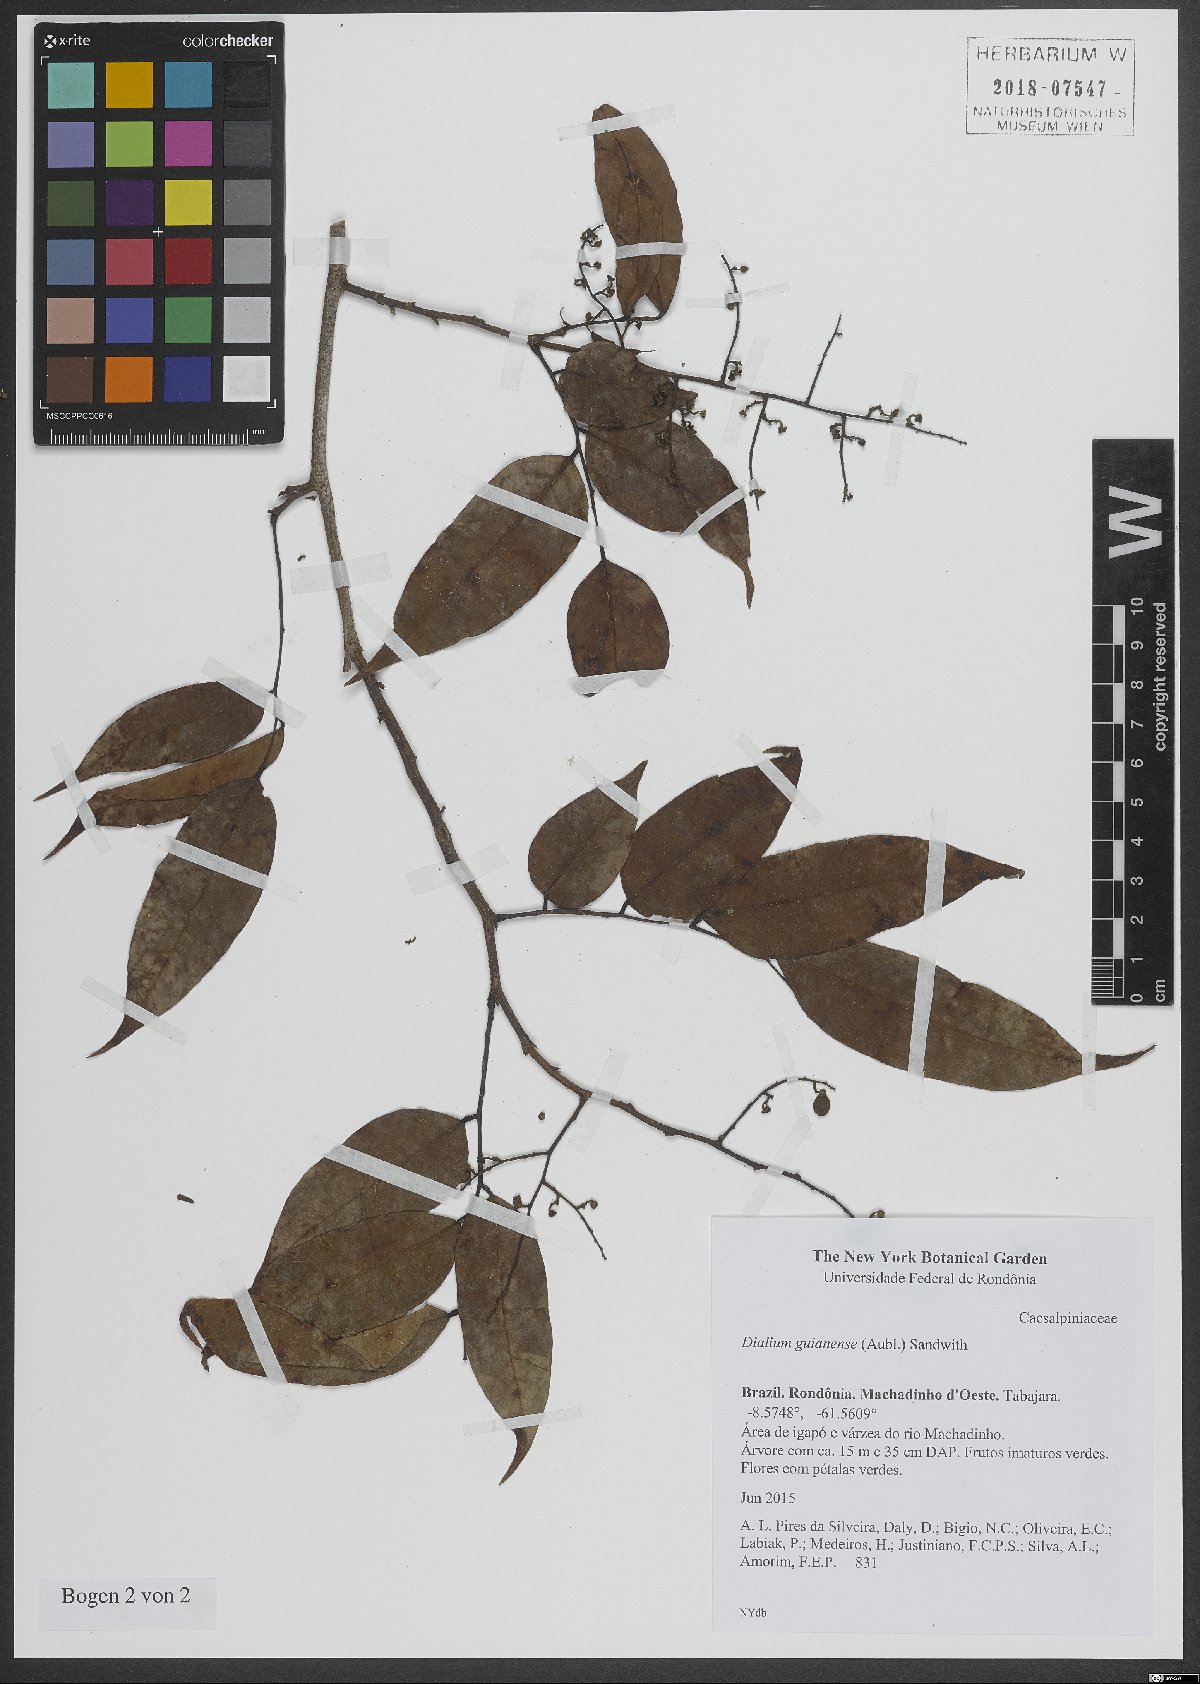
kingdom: Plantae
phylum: Tracheophyta
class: Magnoliopsida
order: Fabales
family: Fabaceae
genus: Dialium
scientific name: Dialium guianense
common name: Ironwood
